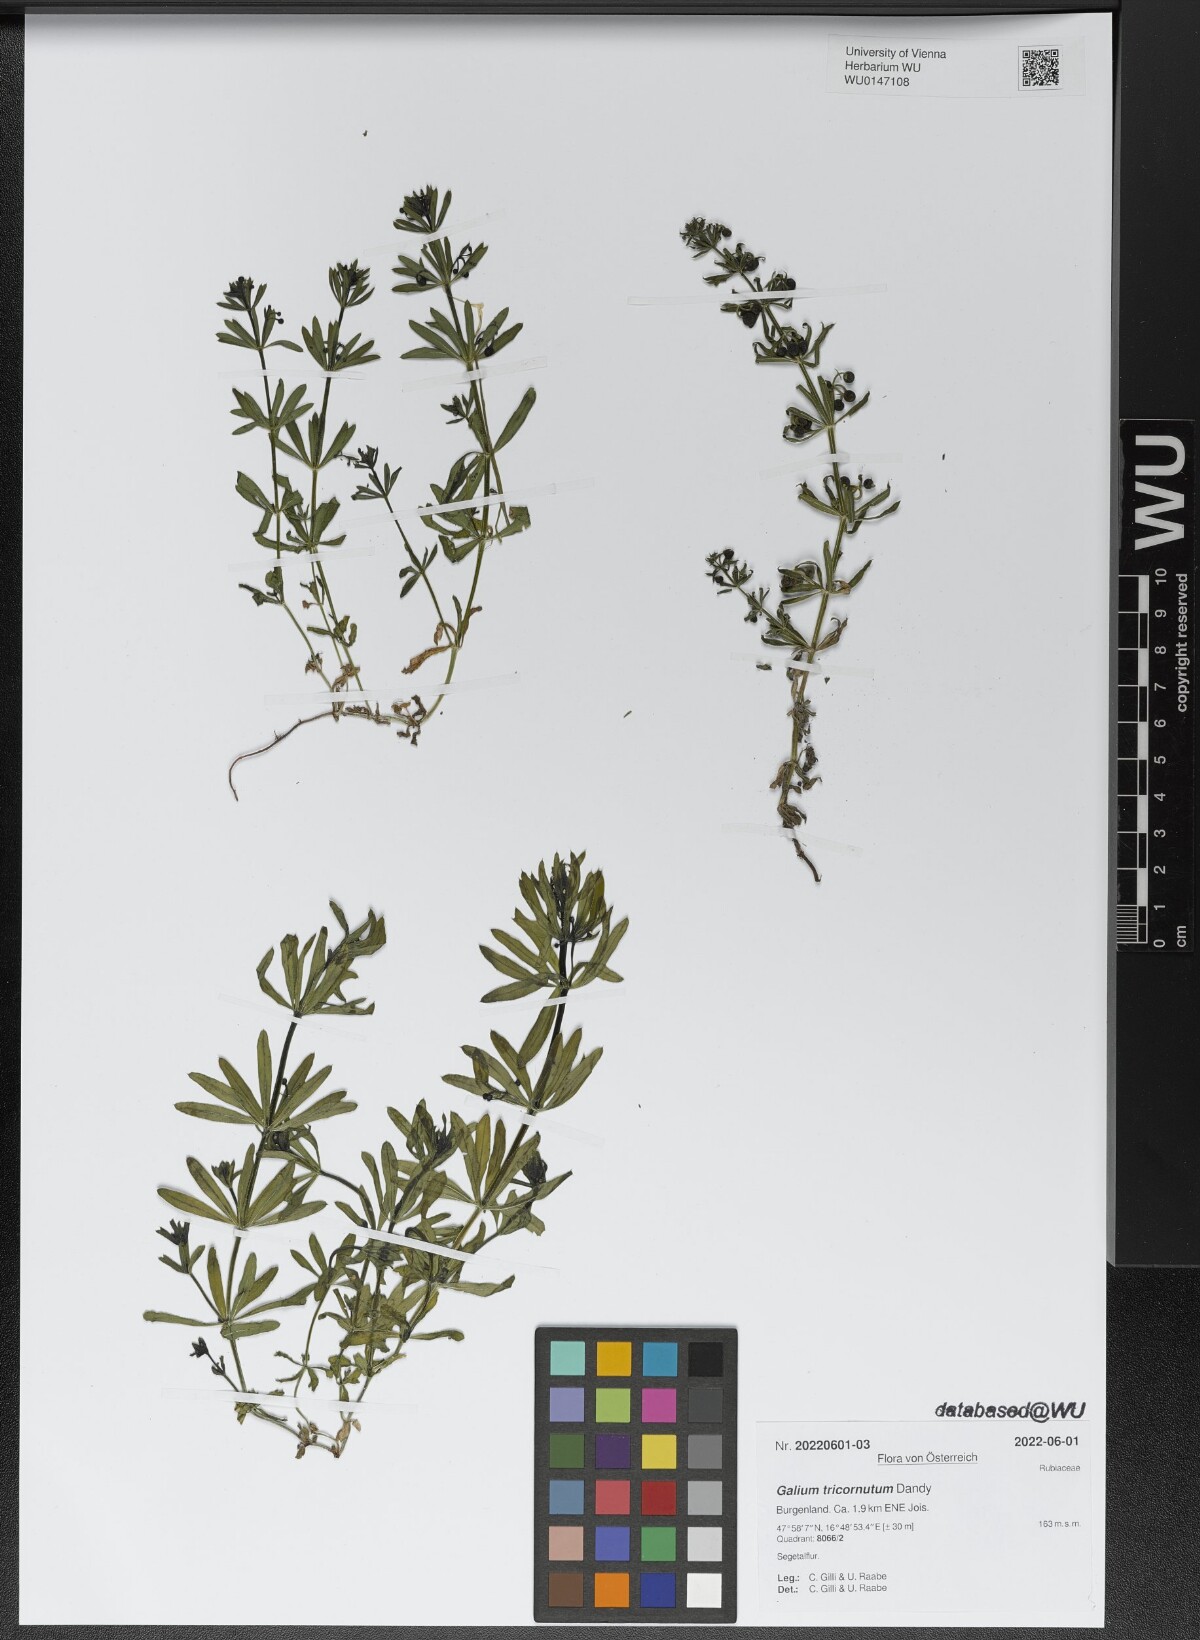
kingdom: Plantae
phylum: Tracheophyta
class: Magnoliopsida
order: Gentianales
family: Rubiaceae
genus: Galium
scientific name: Galium tricornutum
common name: Corn cleavers
